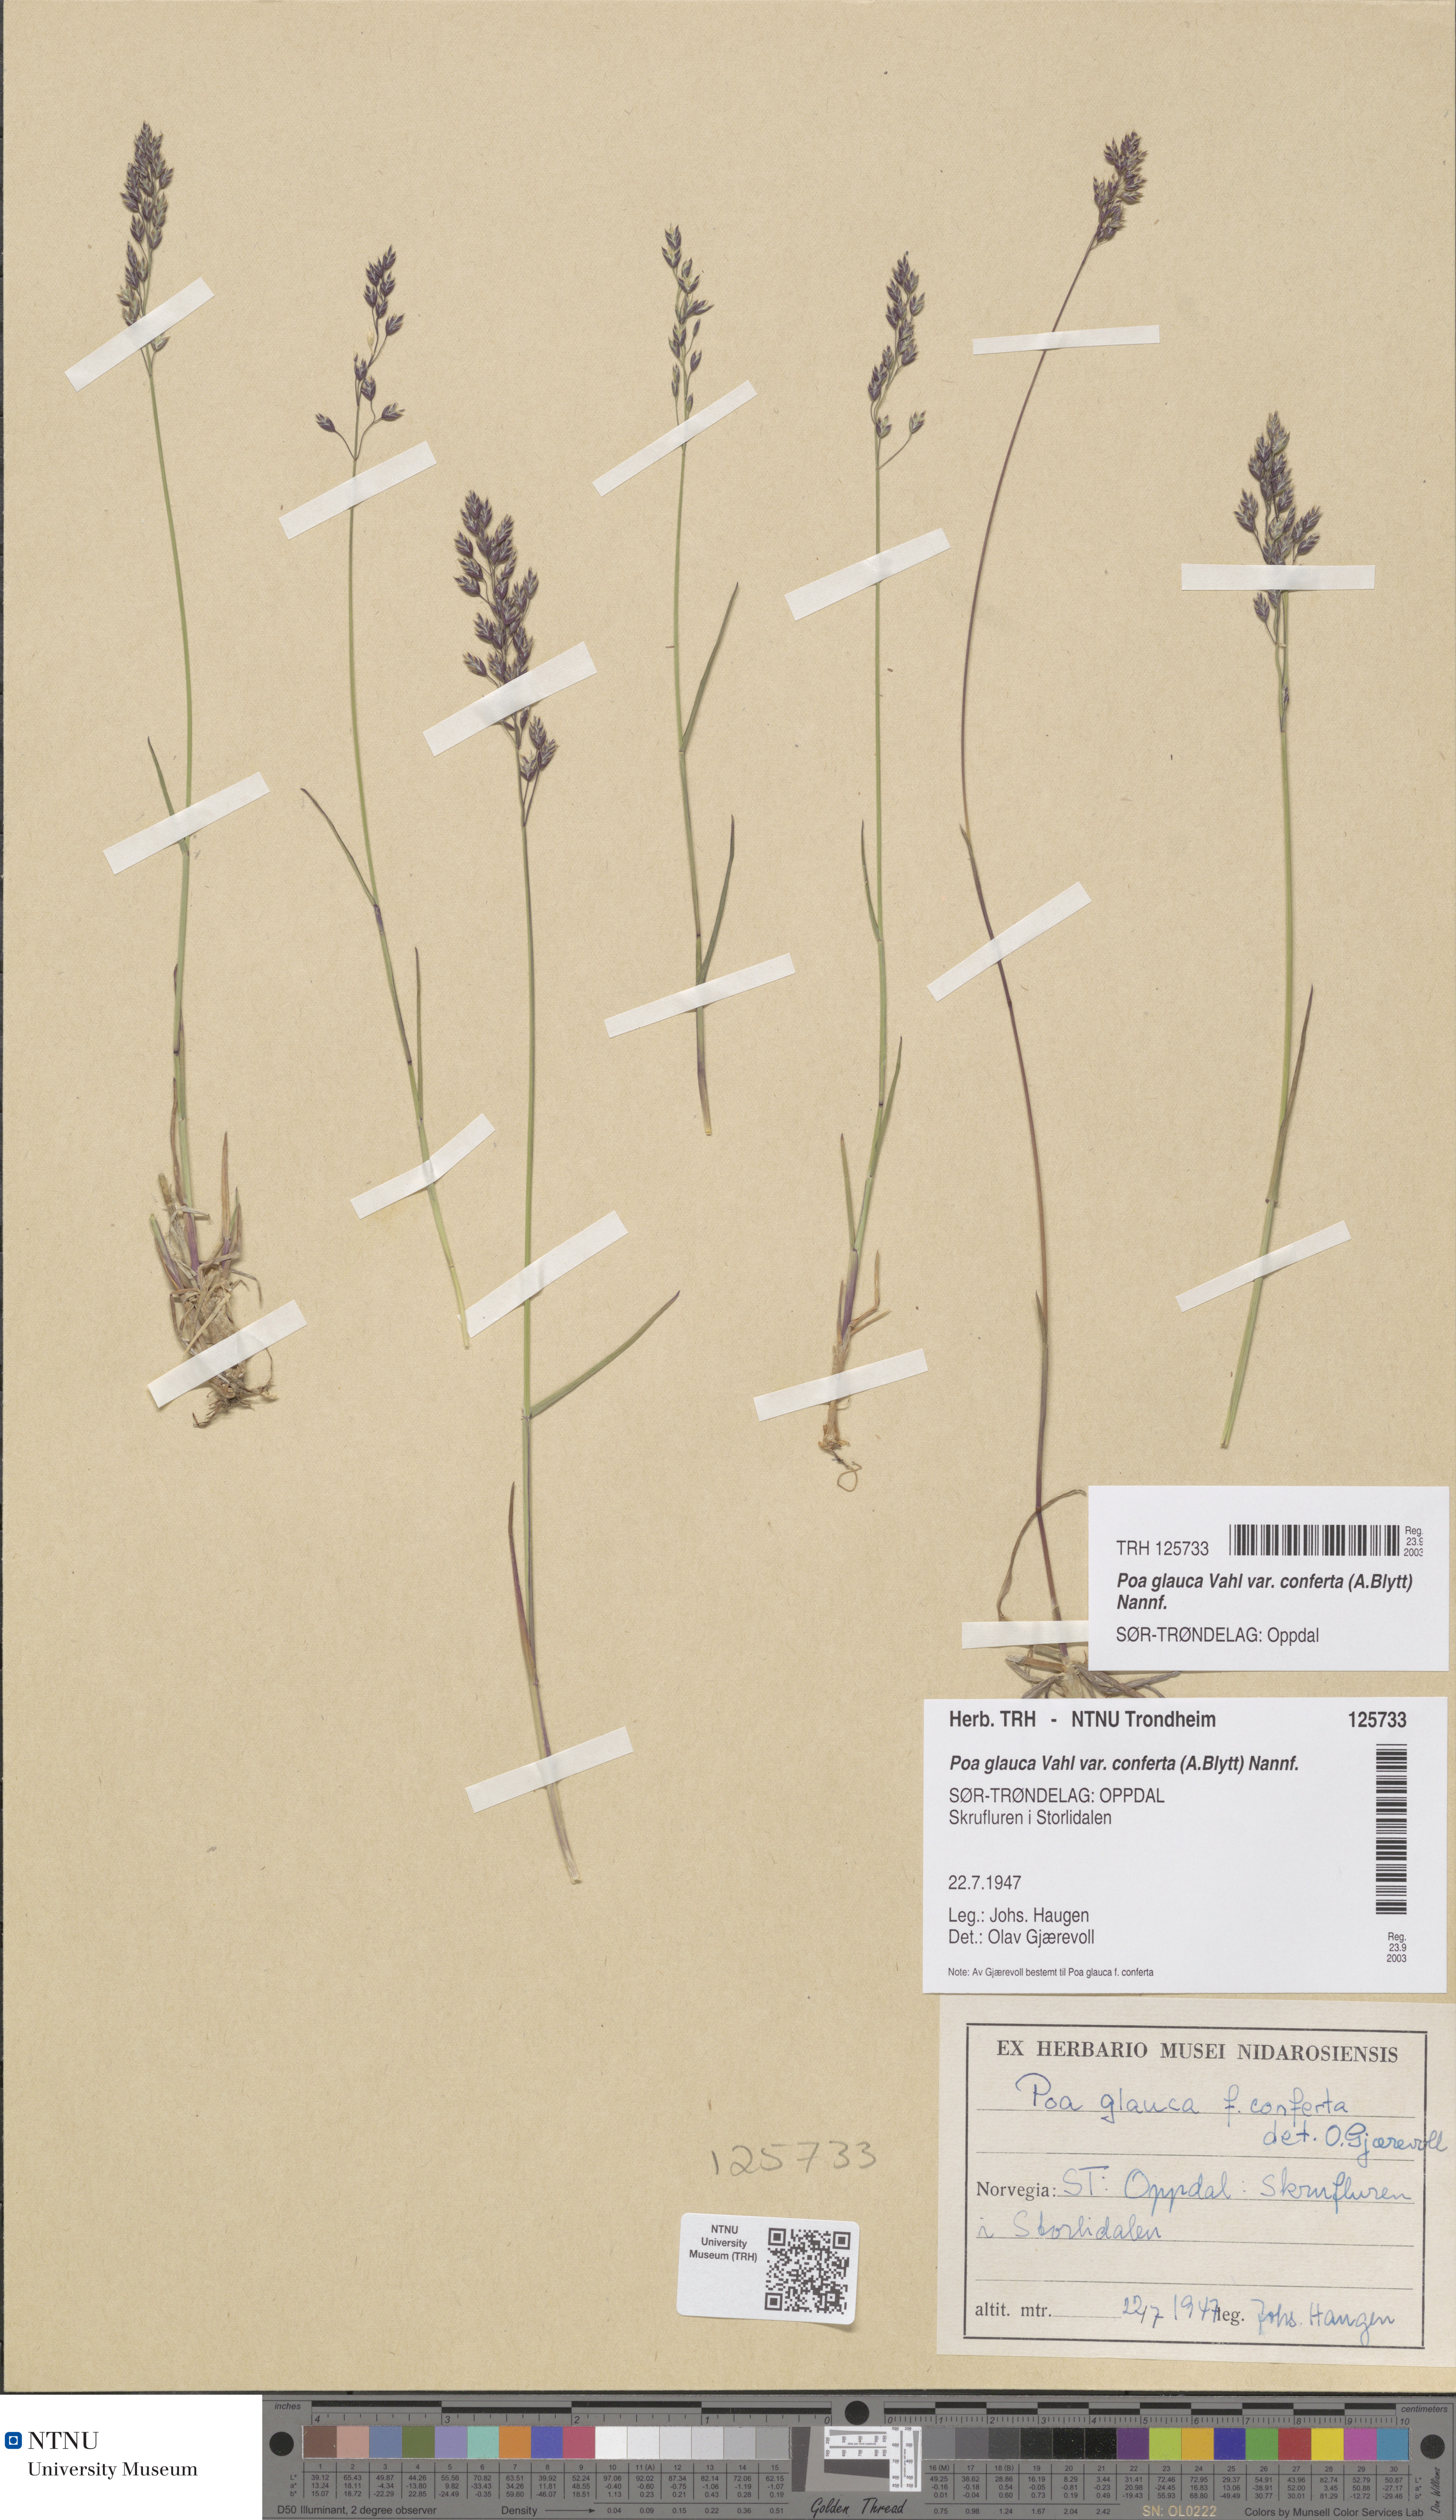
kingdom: Plantae
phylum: Tracheophyta
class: Liliopsida
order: Poales
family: Poaceae
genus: Poa
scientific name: Poa glauca
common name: Glaucous bluegrass
